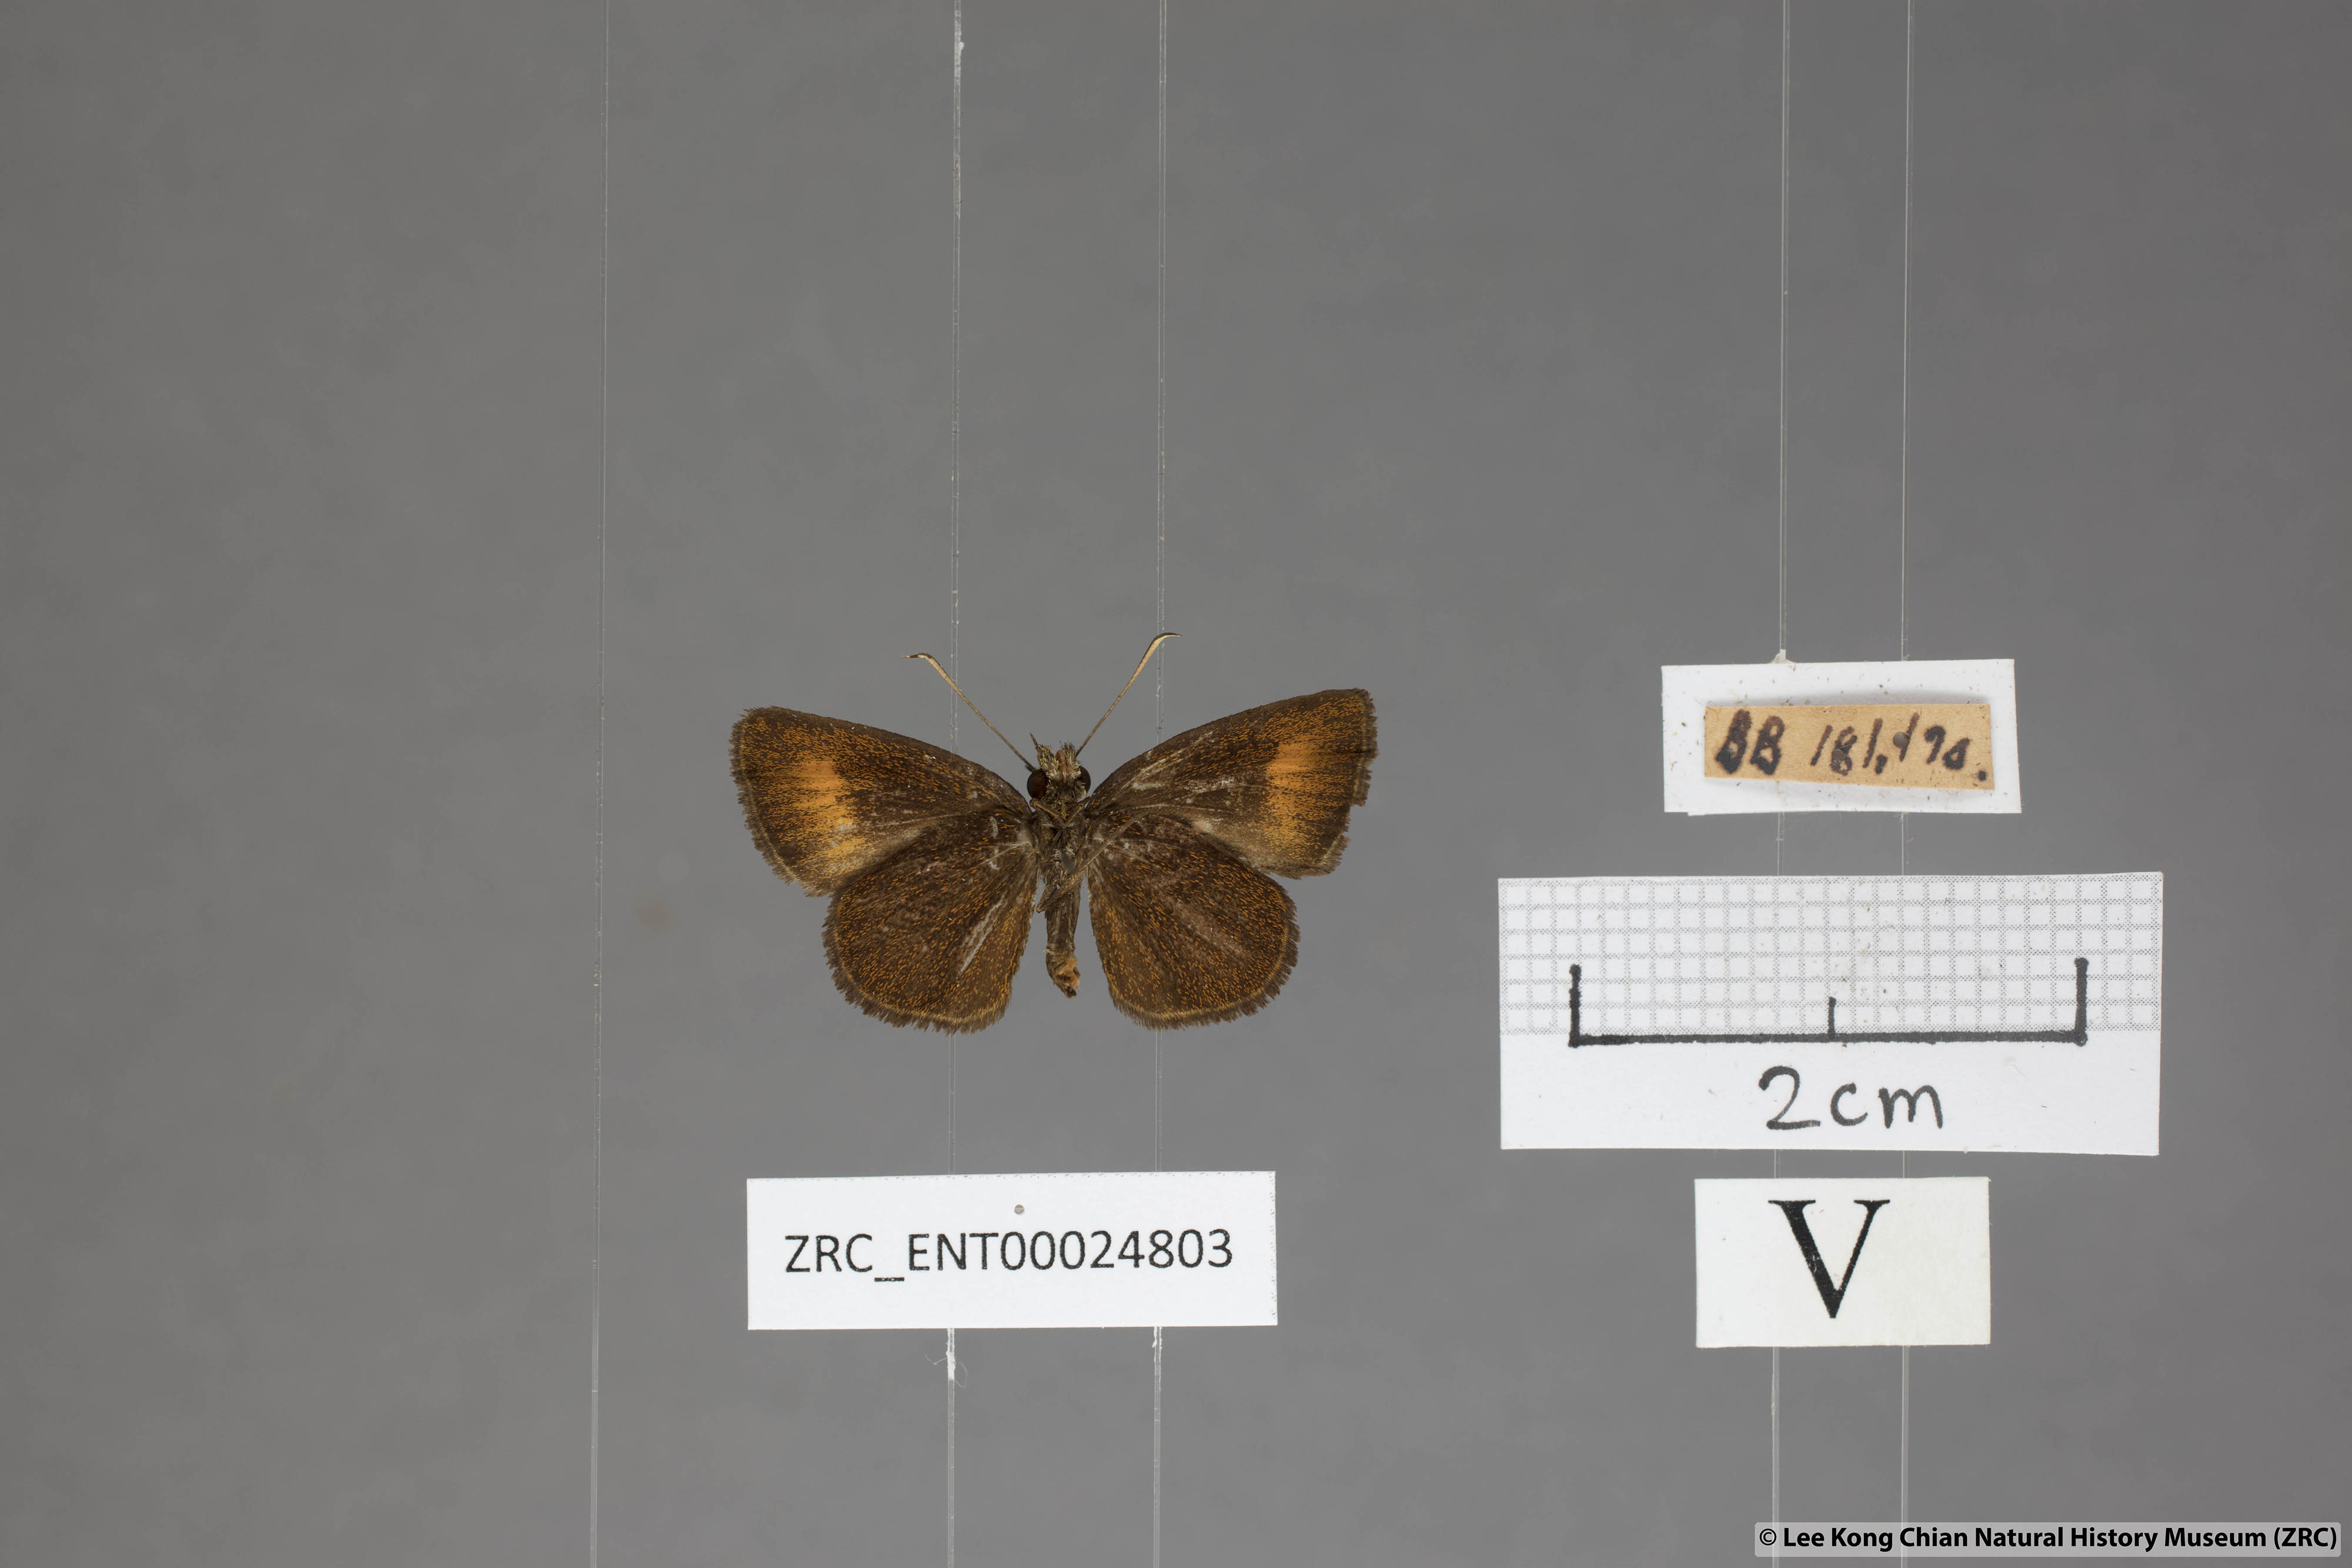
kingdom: Animalia
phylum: Arthropoda
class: Insecta
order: Lepidoptera
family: Hesperiidae
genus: Iambrix
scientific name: Iambrix Idmon obliquans
